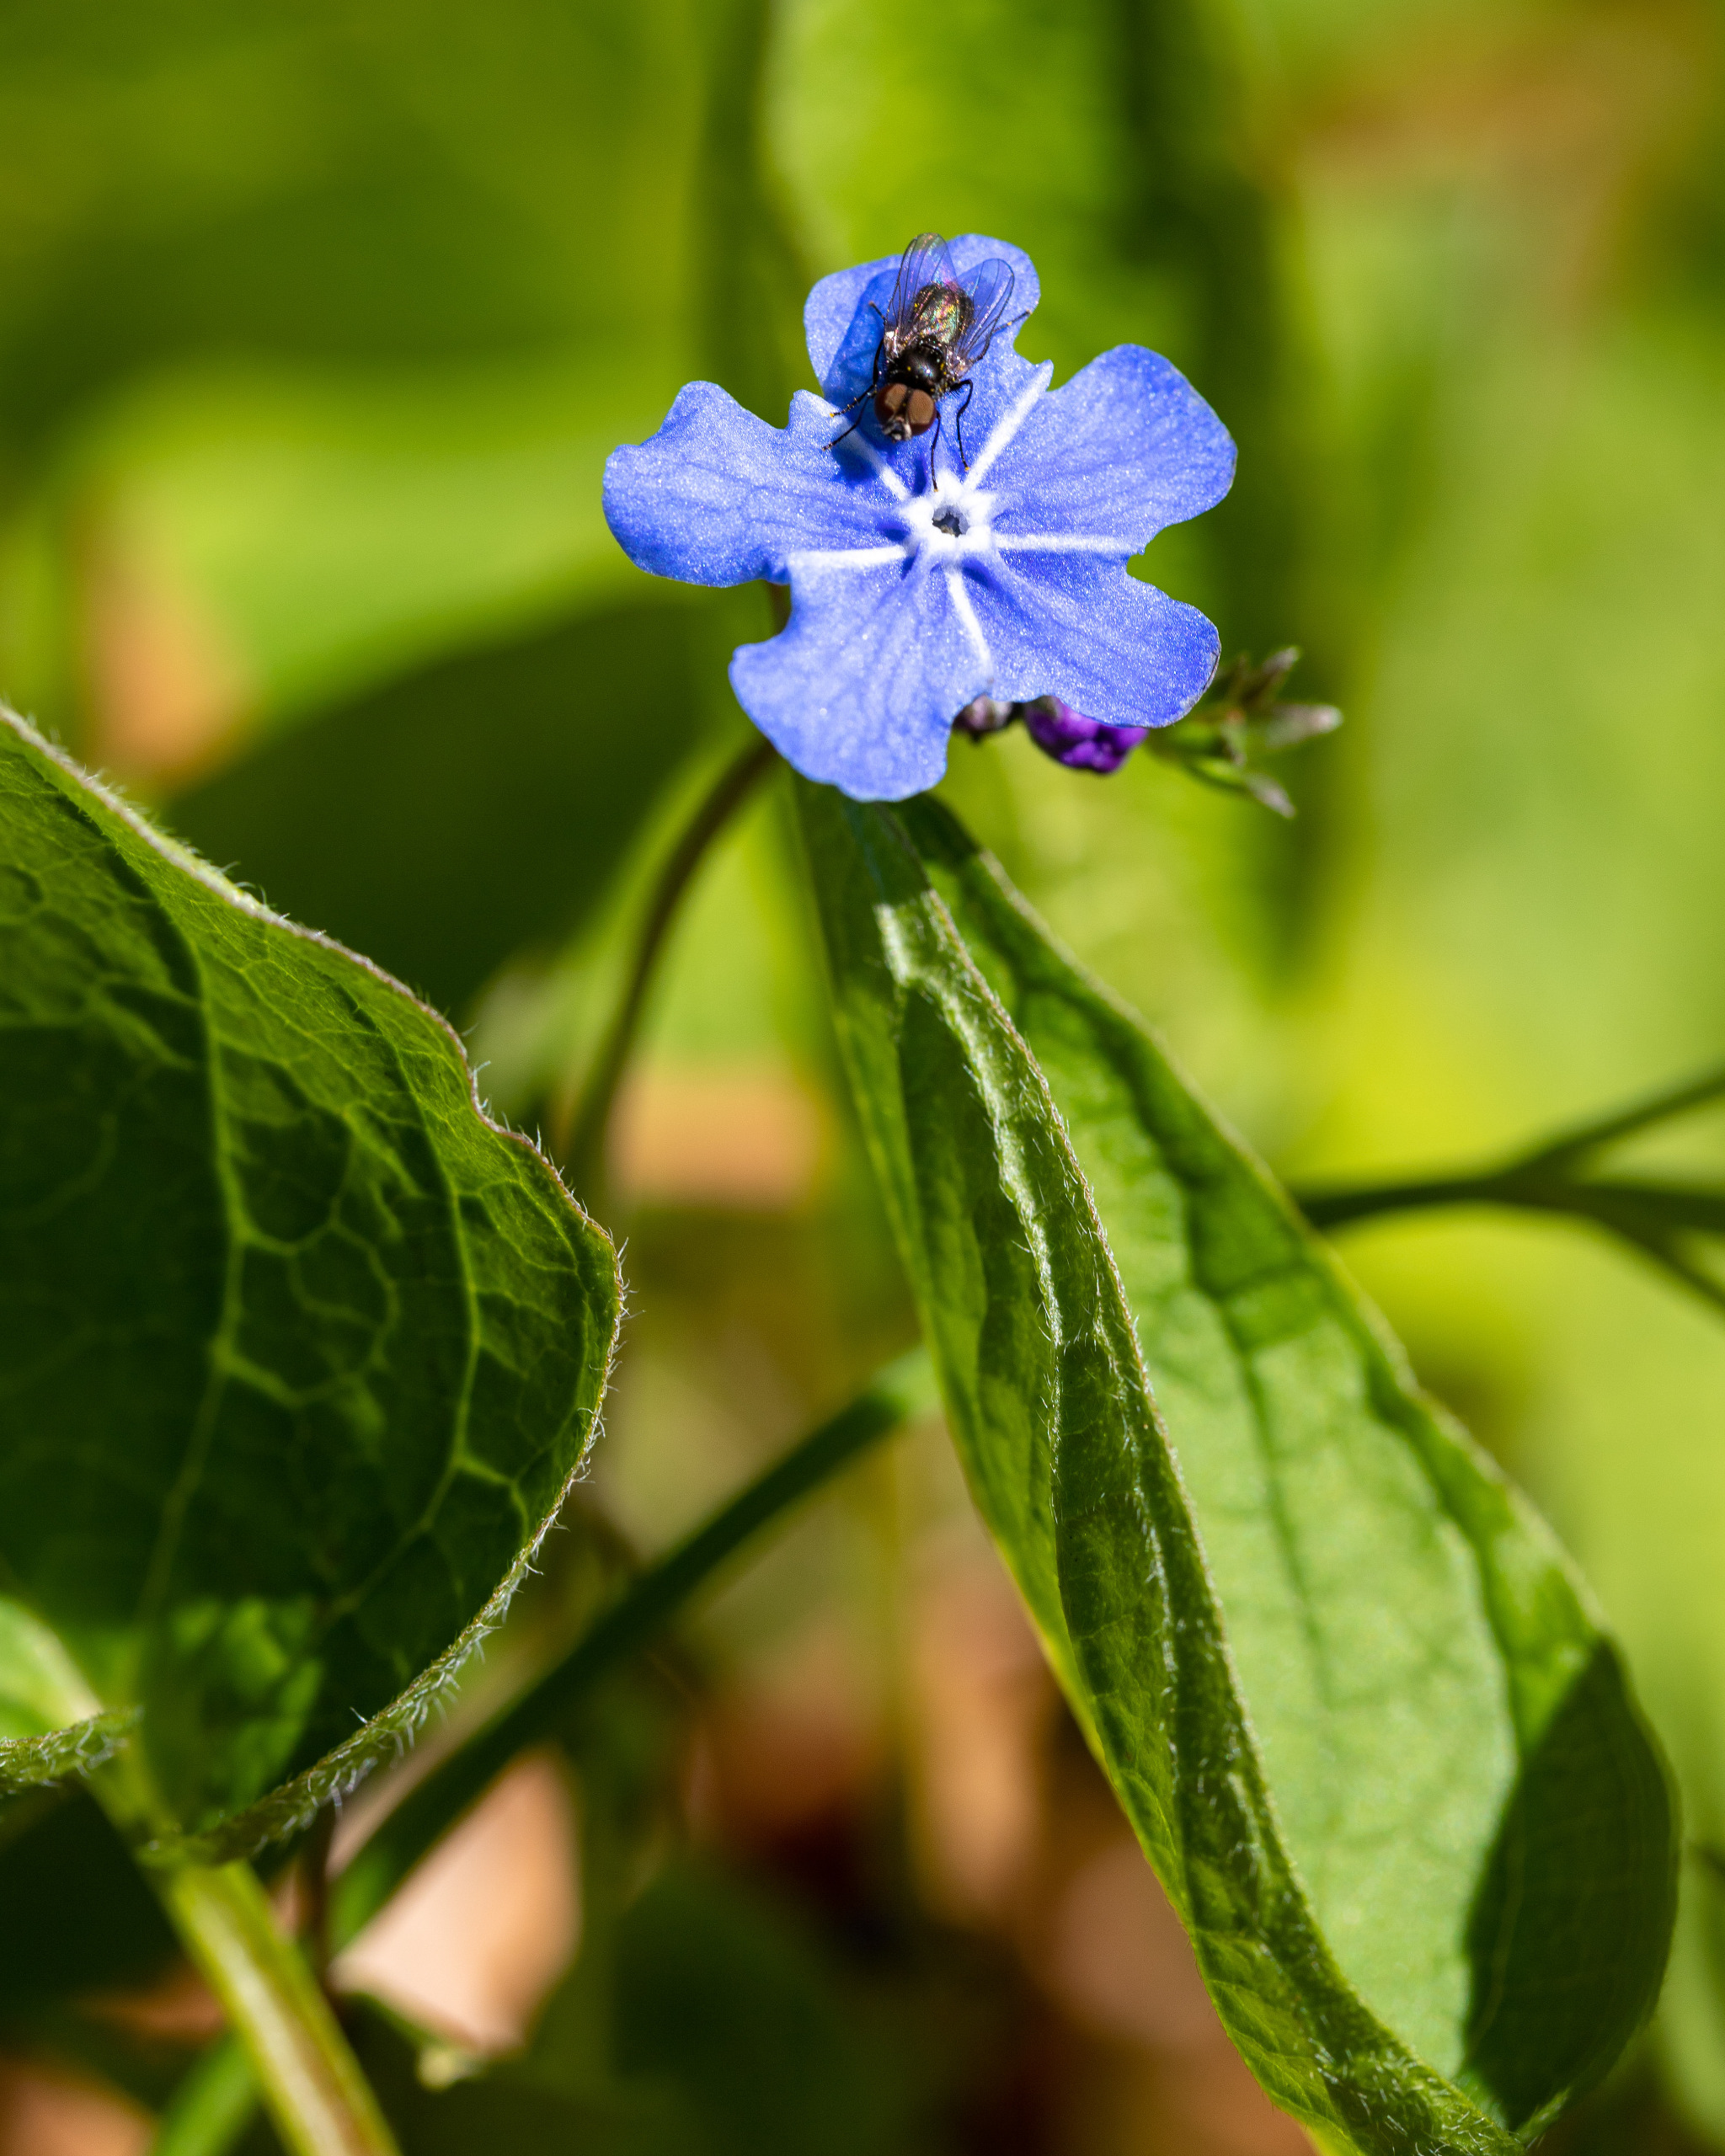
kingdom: Plantae
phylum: Tracheophyta
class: Magnoliopsida
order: Boraginales
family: Boraginaceae
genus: Omphalodes
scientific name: Omphalodes verna
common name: Vår-kærminde
